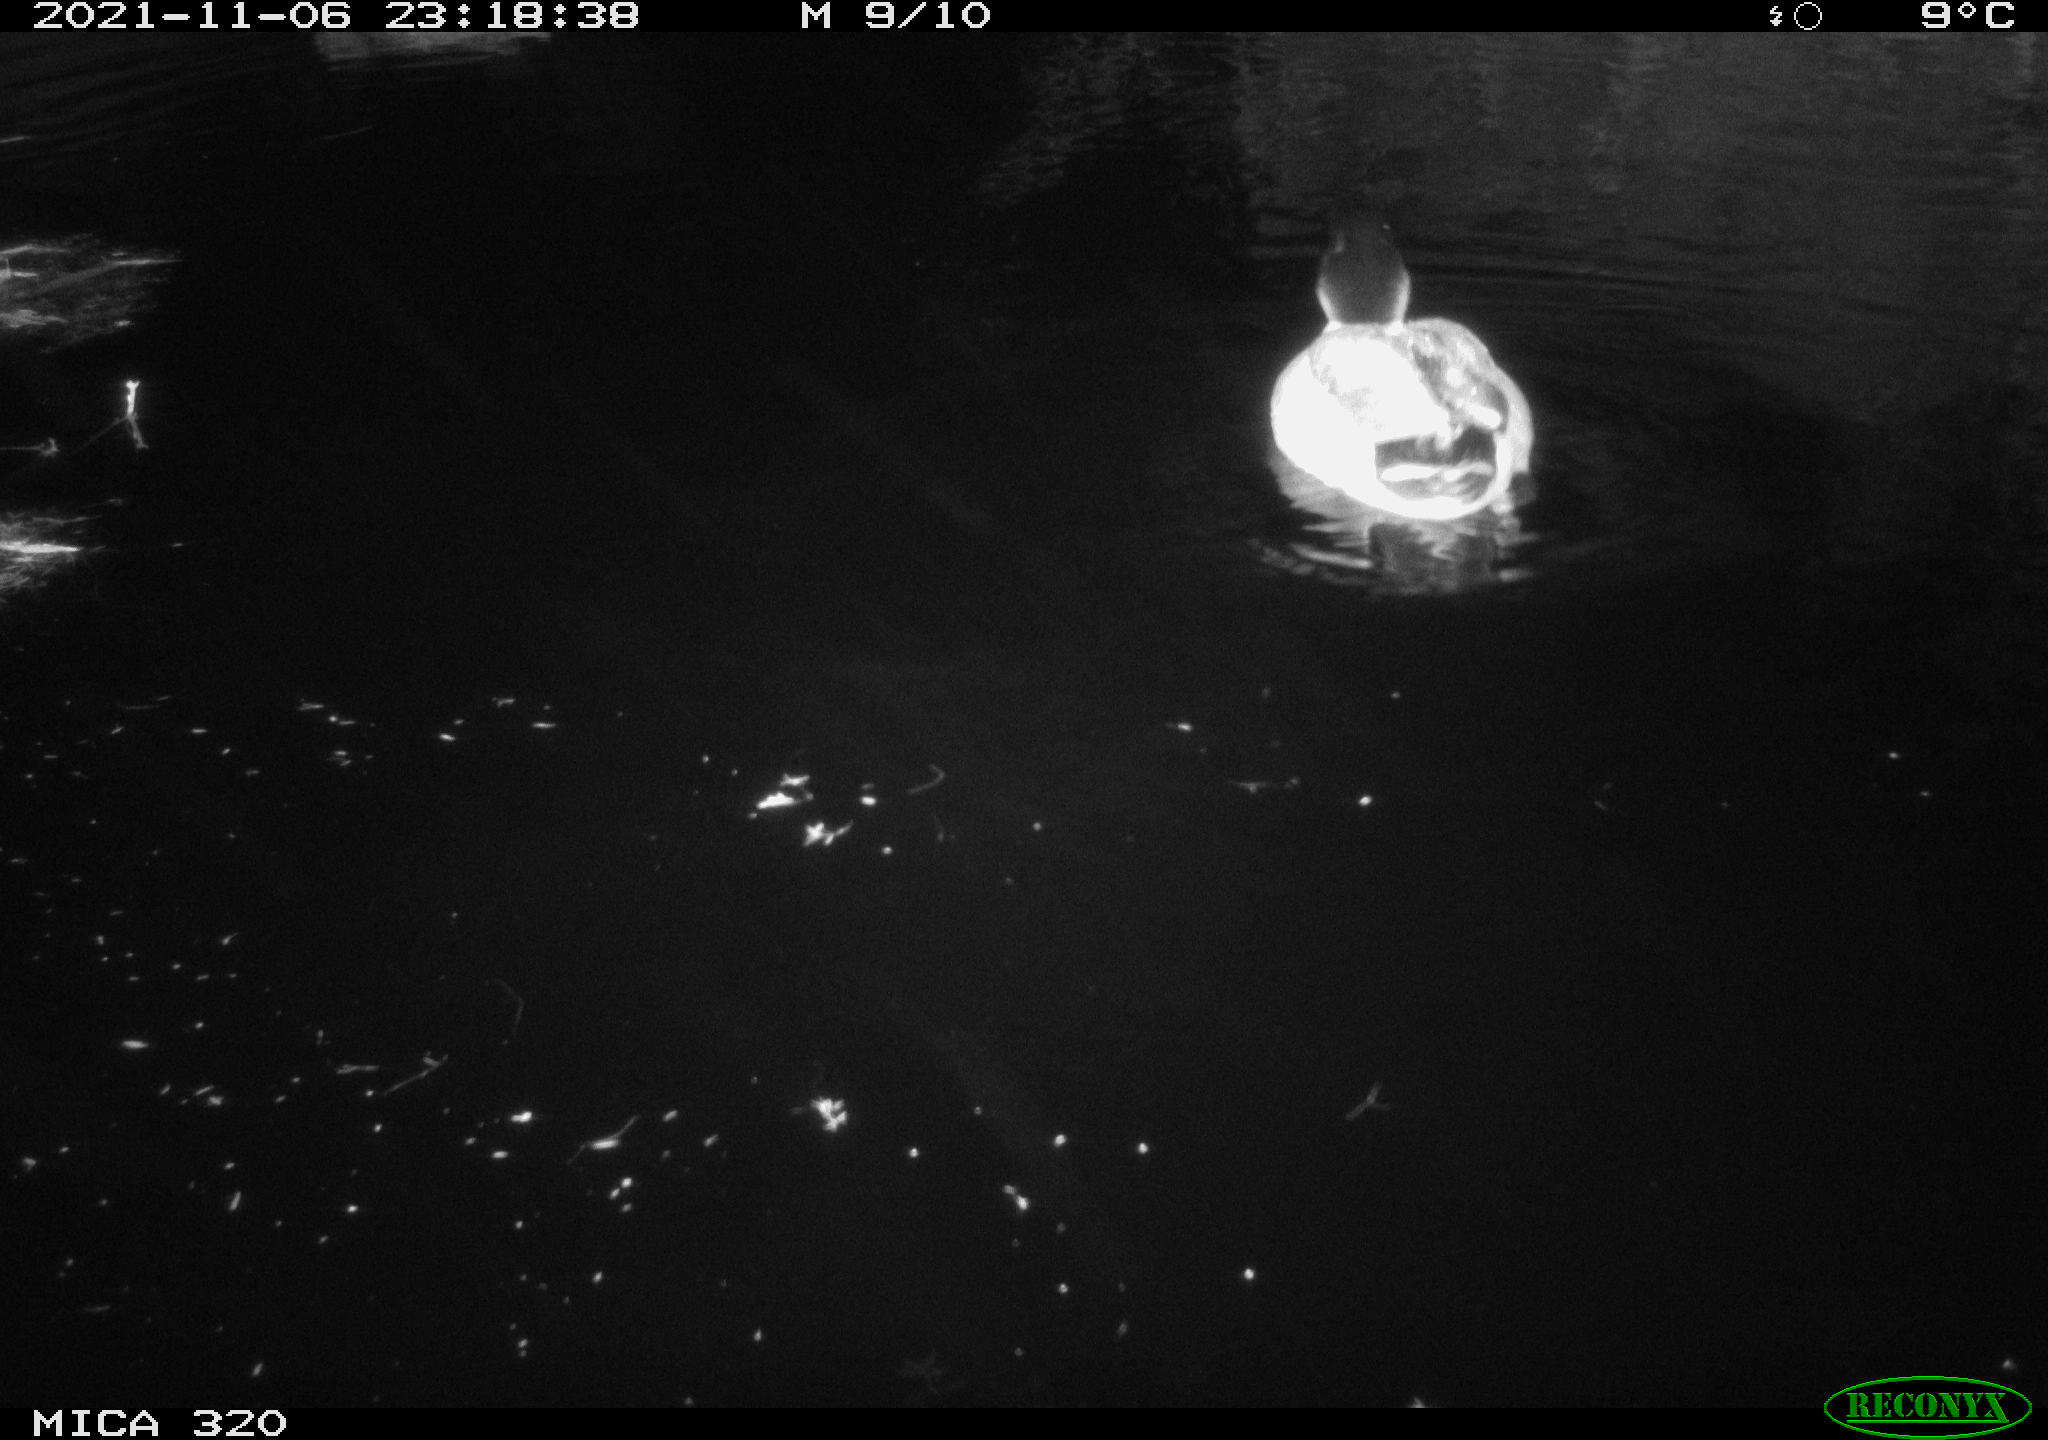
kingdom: Animalia
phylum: Chordata
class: Aves
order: Anseriformes
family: Anatidae
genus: Anas
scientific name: Anas platyrhynchos
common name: Mallard
